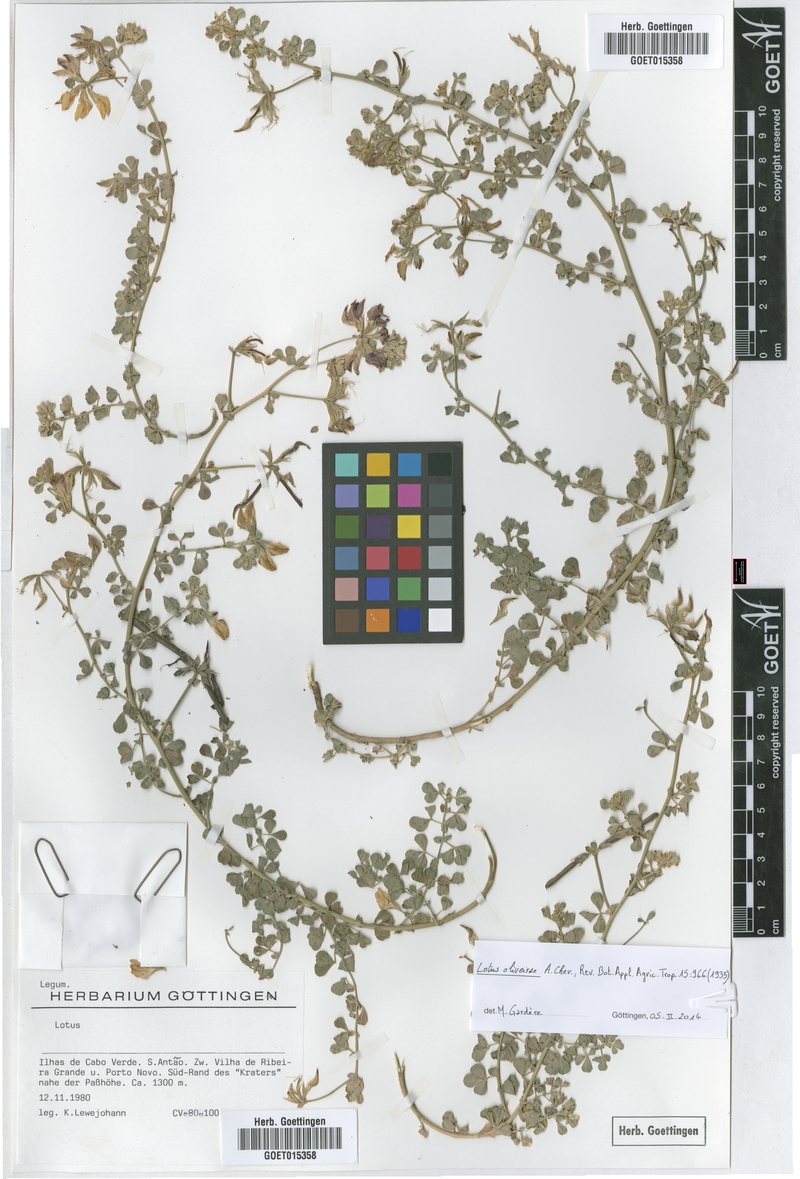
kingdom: Plantae
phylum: Tracheophyta
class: Magnoliopsida
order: Fabales
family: Fabaceae
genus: Lotus
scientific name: Lotus oliveirae
